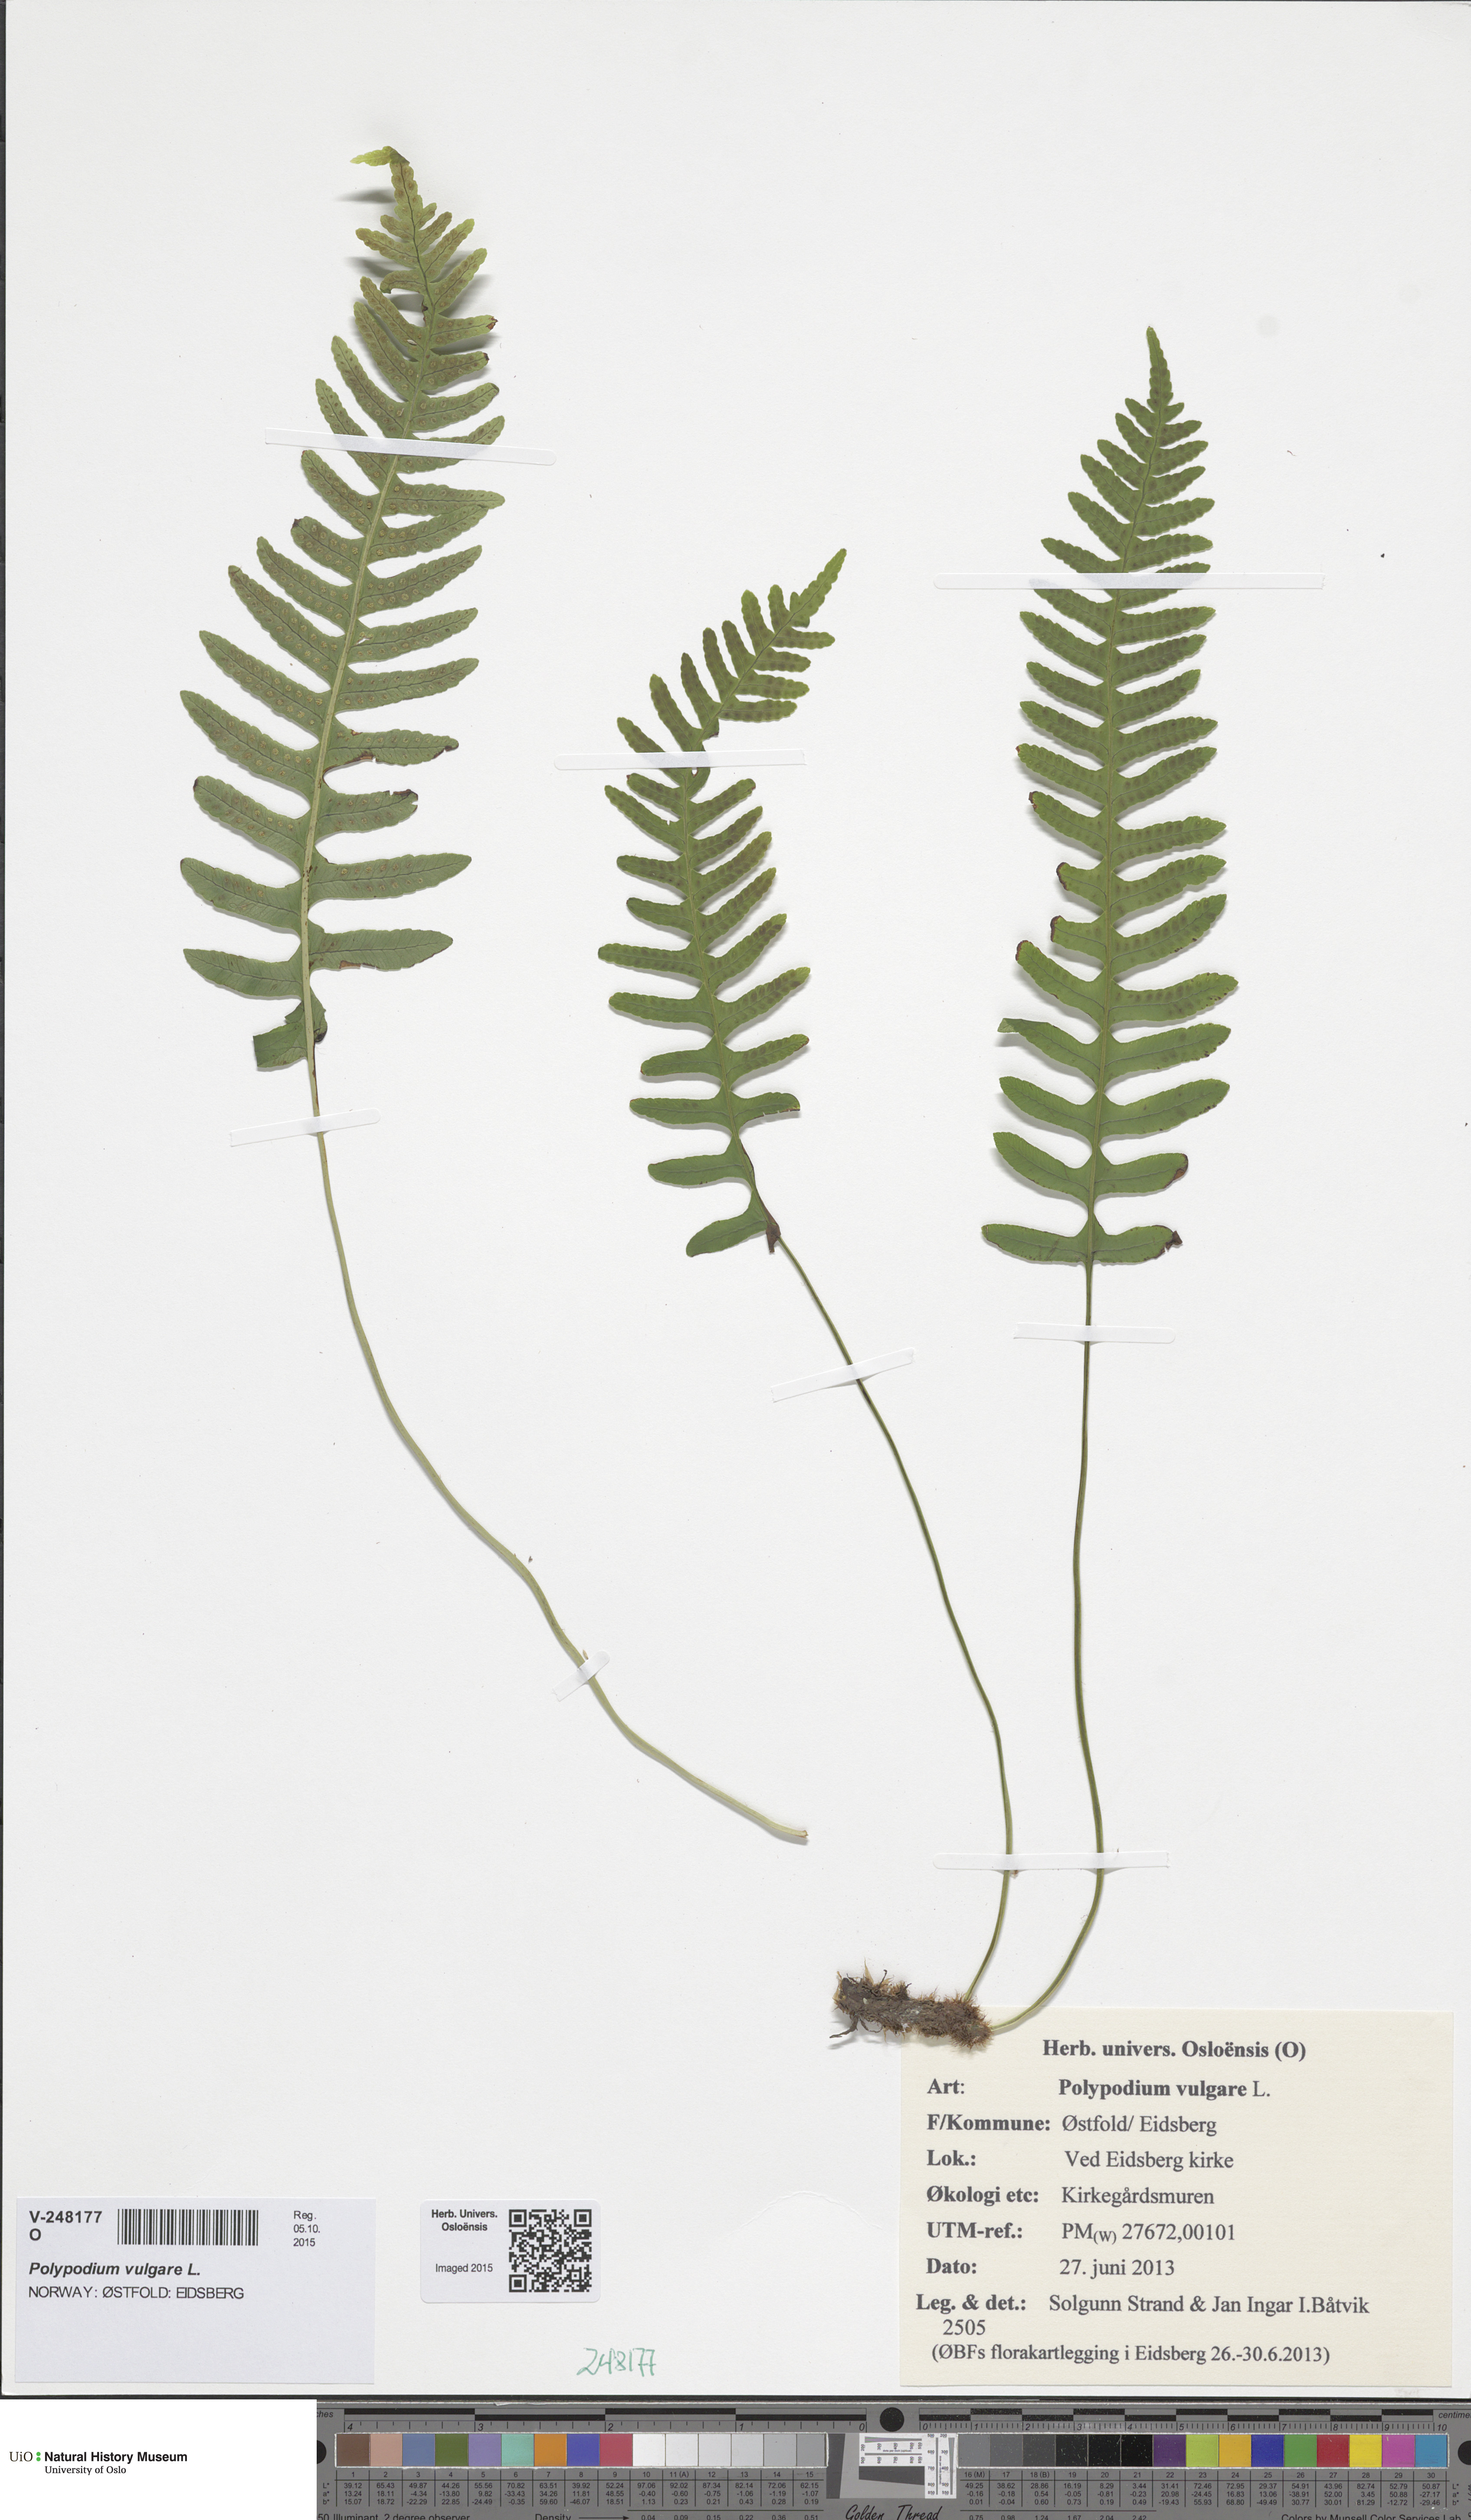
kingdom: Plantae
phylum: Tracheophyta
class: Polypodiopsida
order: Polypodiales
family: Polypodiaceae
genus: Polypodium
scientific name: Polypodium vulgare
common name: Common polypody
